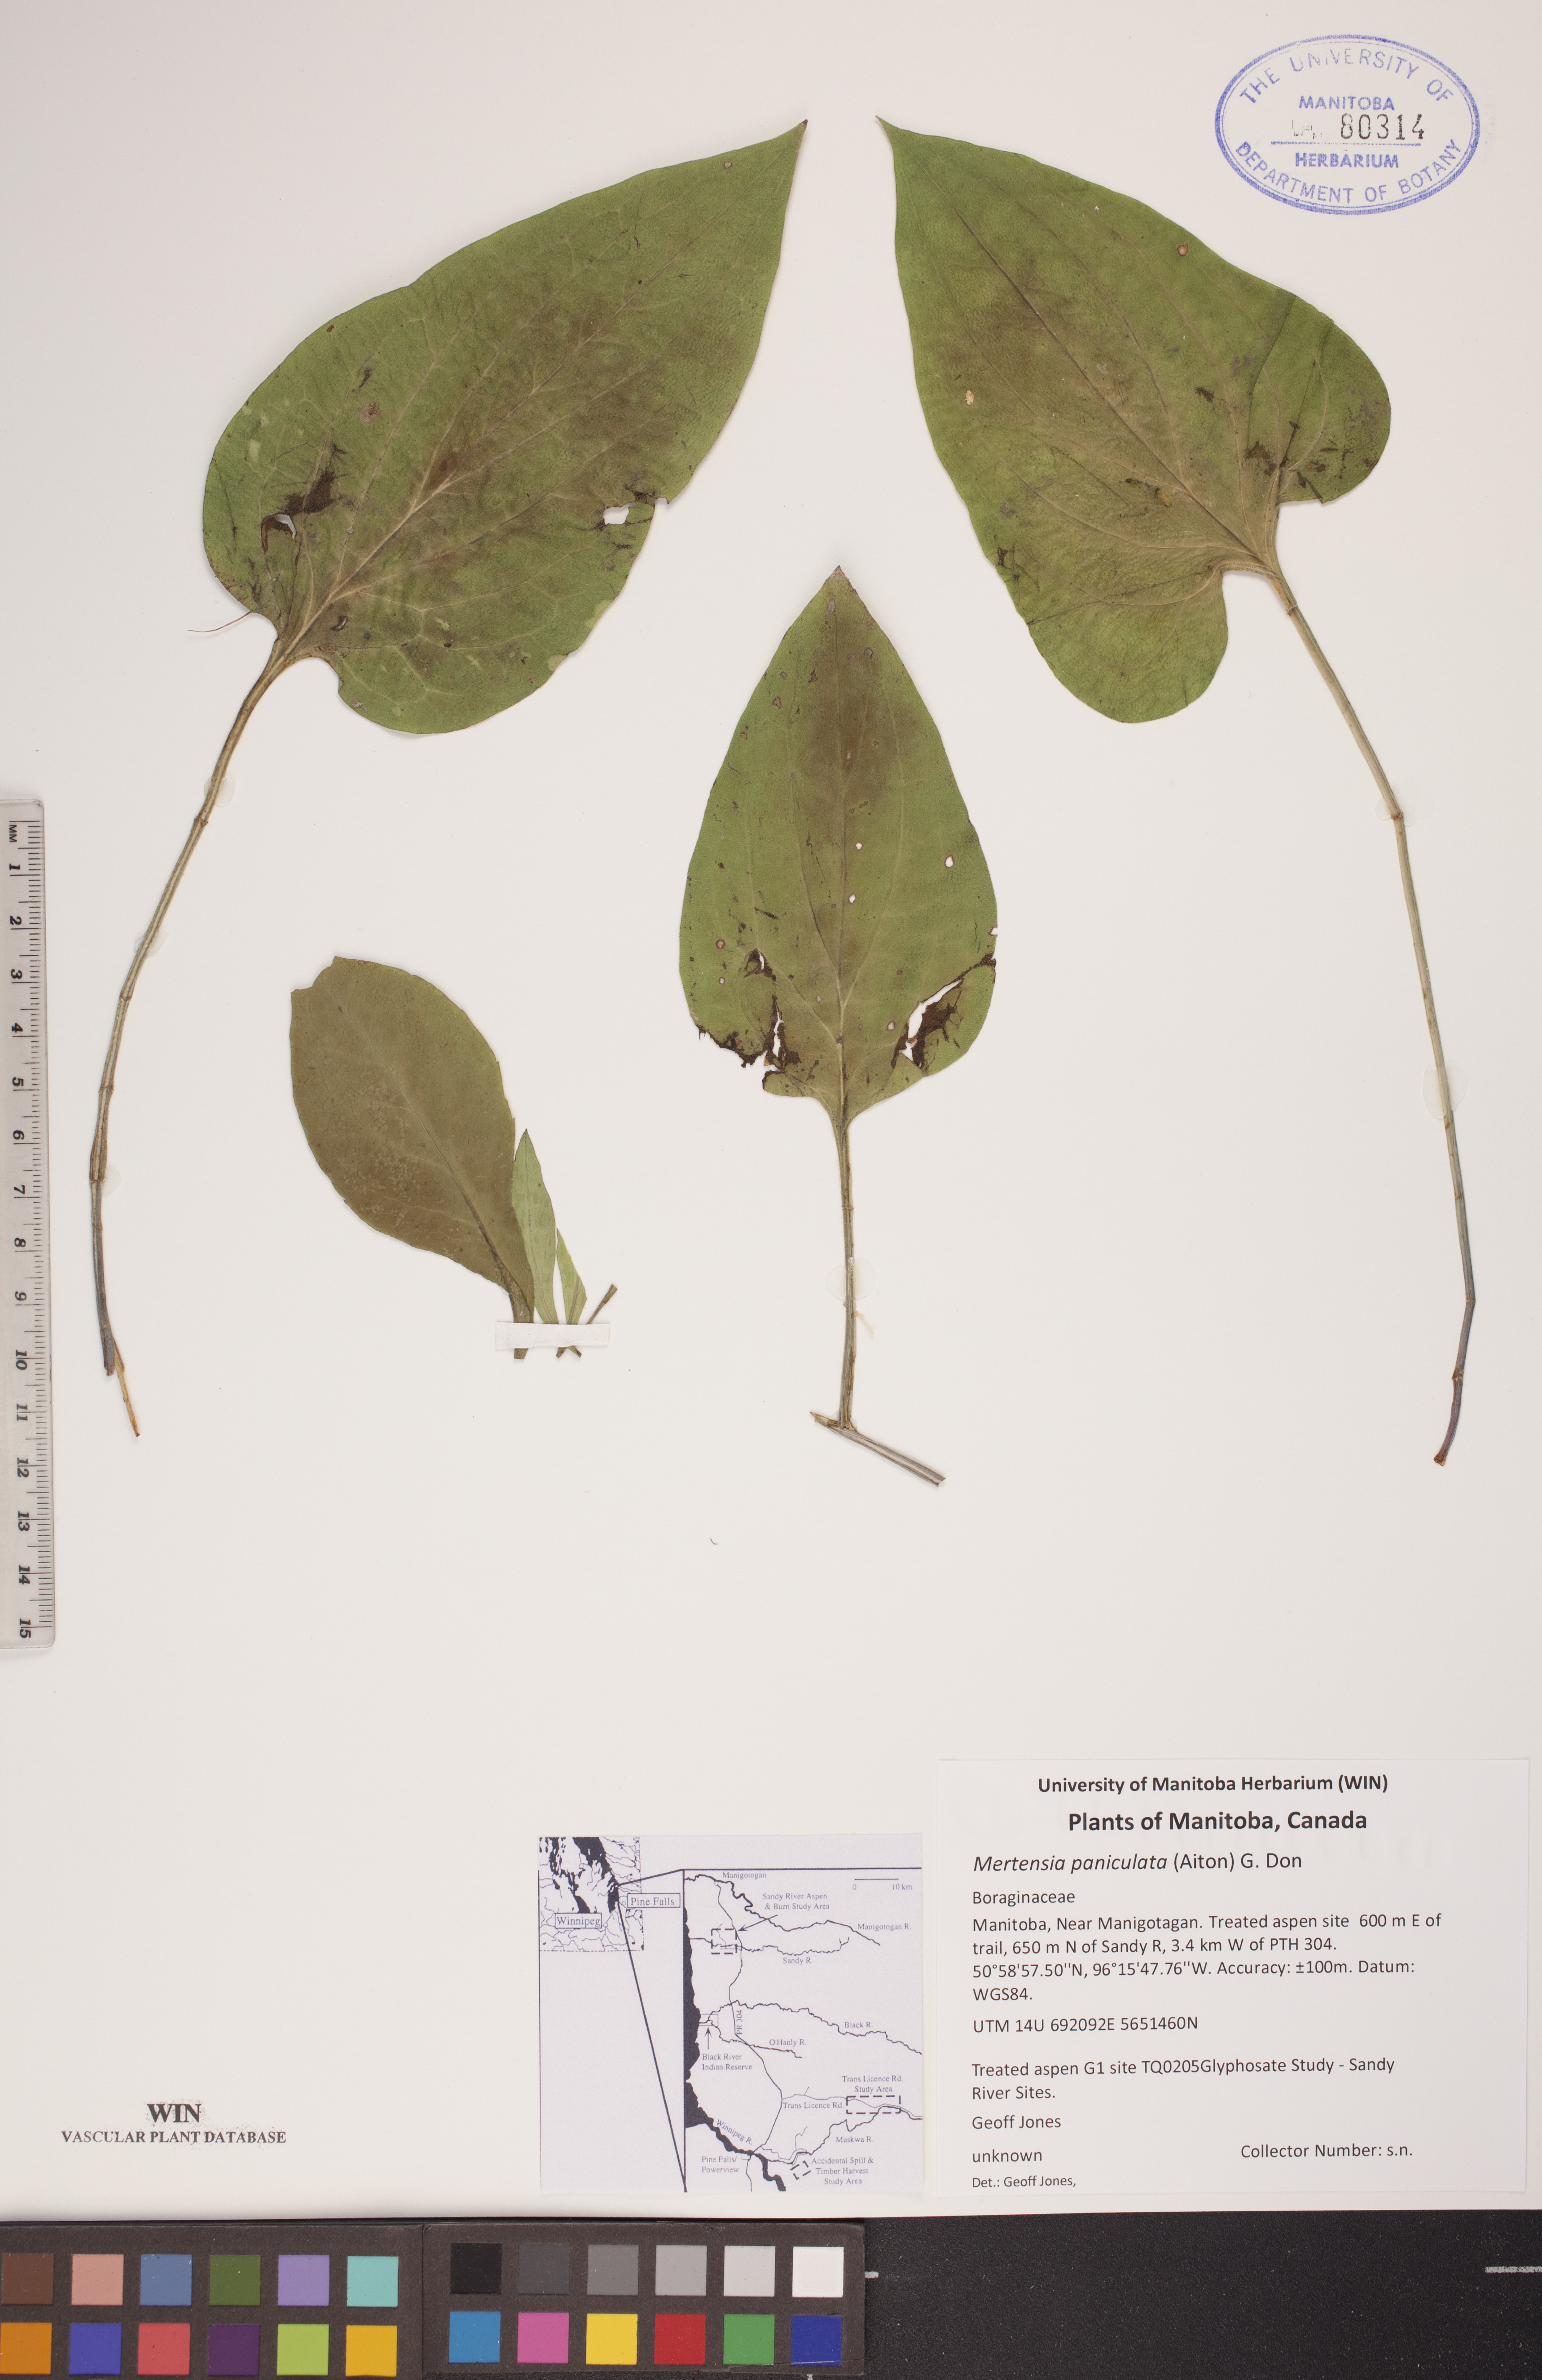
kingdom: Plantae
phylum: Tracheophyta
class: Magnoliopsida
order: Boraginales
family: Boraginaceae
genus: Mertensia
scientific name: Mertensia paniculata
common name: Panicled bluebells
